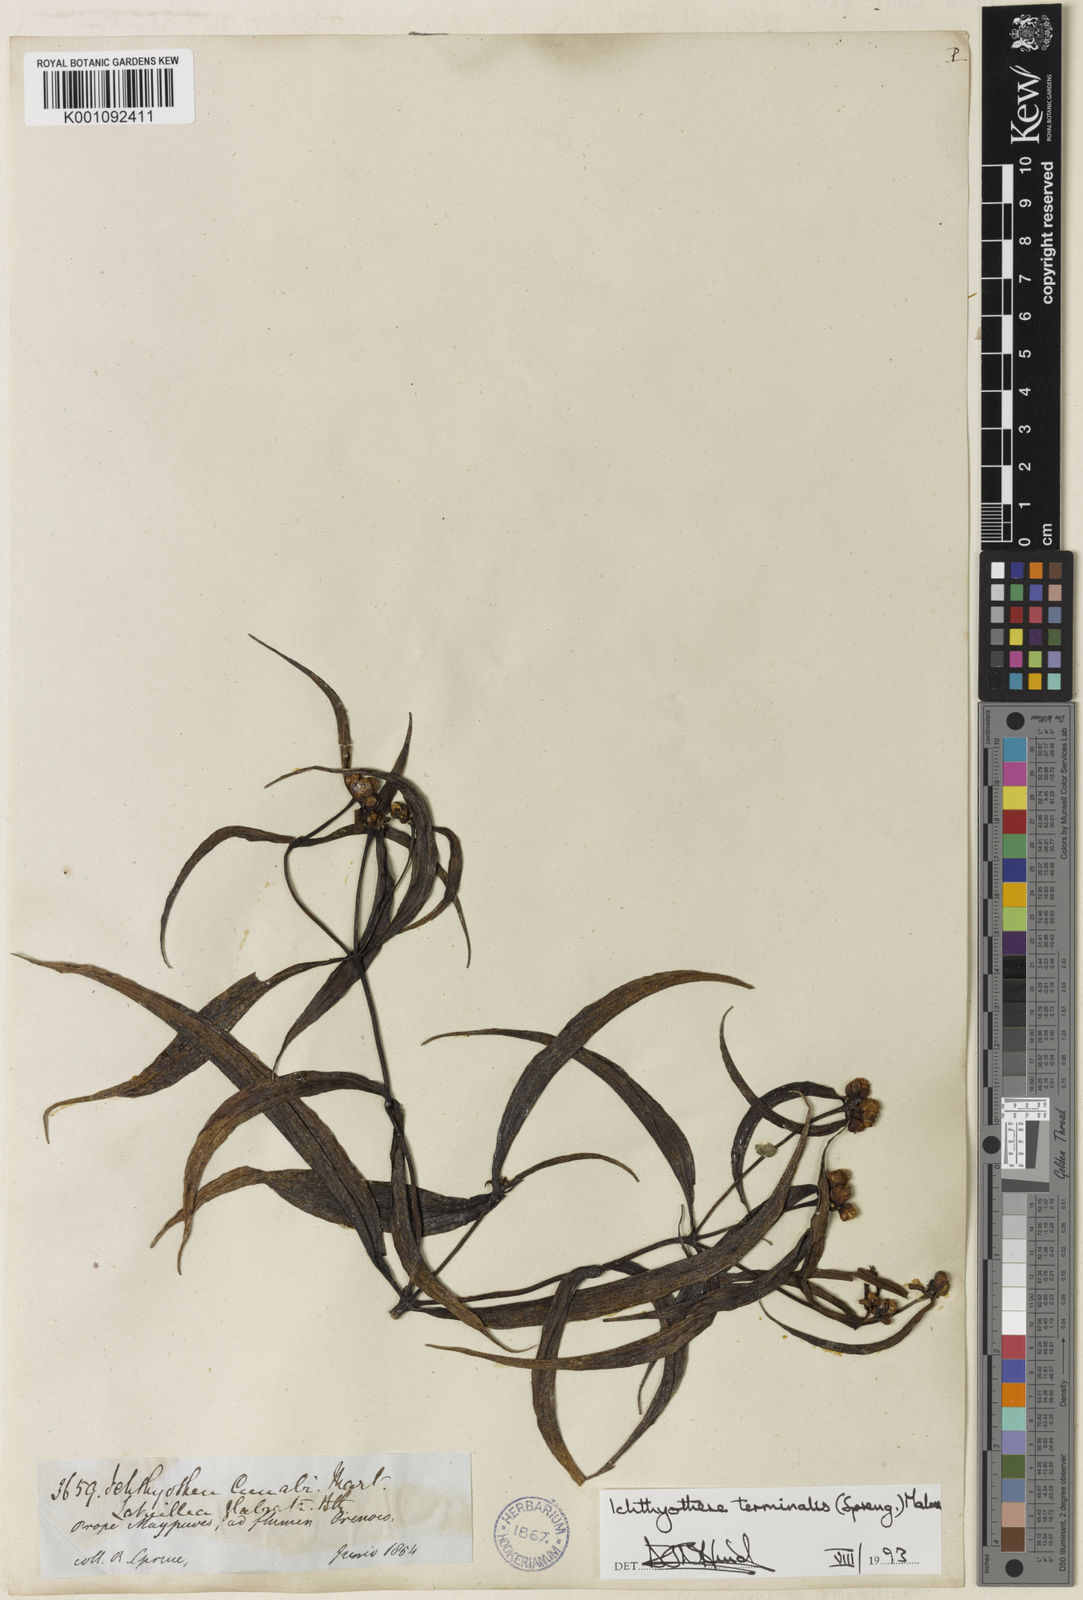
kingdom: Plantae
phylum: Tracheophyta
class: Magnoliopsida
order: Asterales
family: Asteraceae
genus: Ichthyothere
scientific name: Ichthyothere
